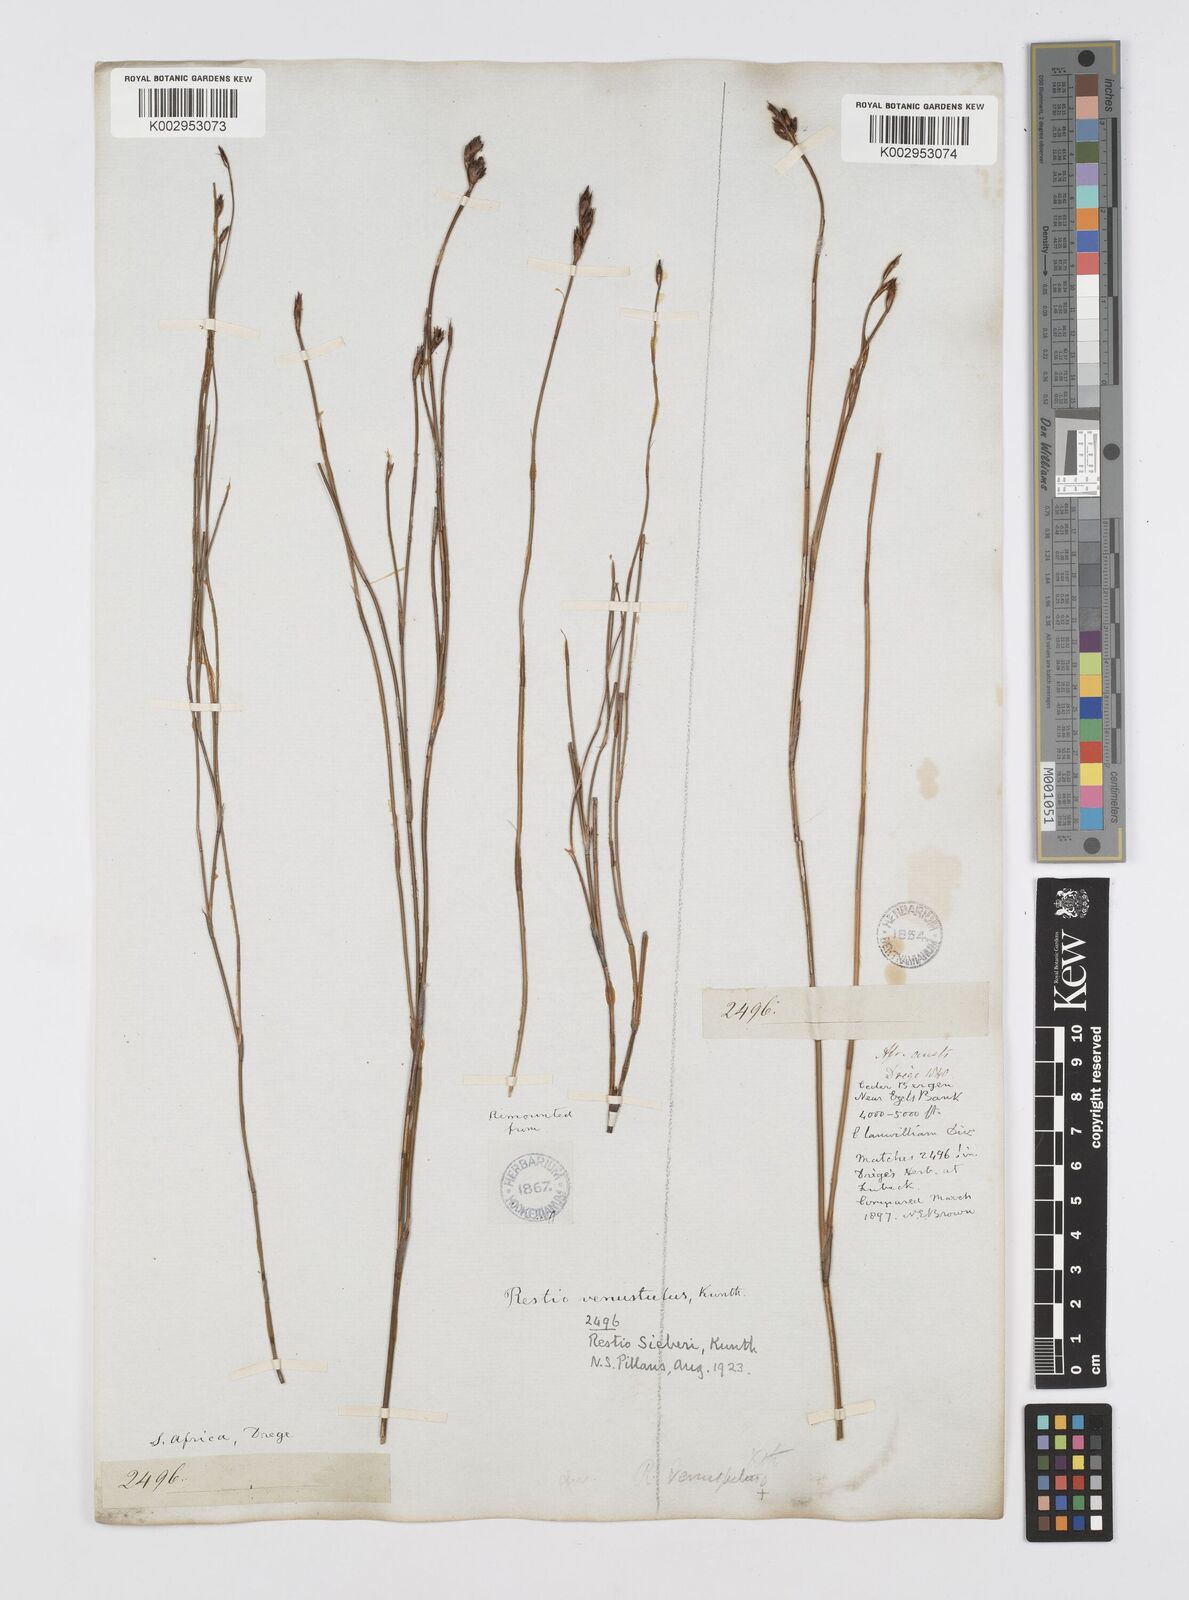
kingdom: Plantae
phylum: Tracheophyta
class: Liliopsida
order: Poales
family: Restionaceae
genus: Restio
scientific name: Restio sieberi
